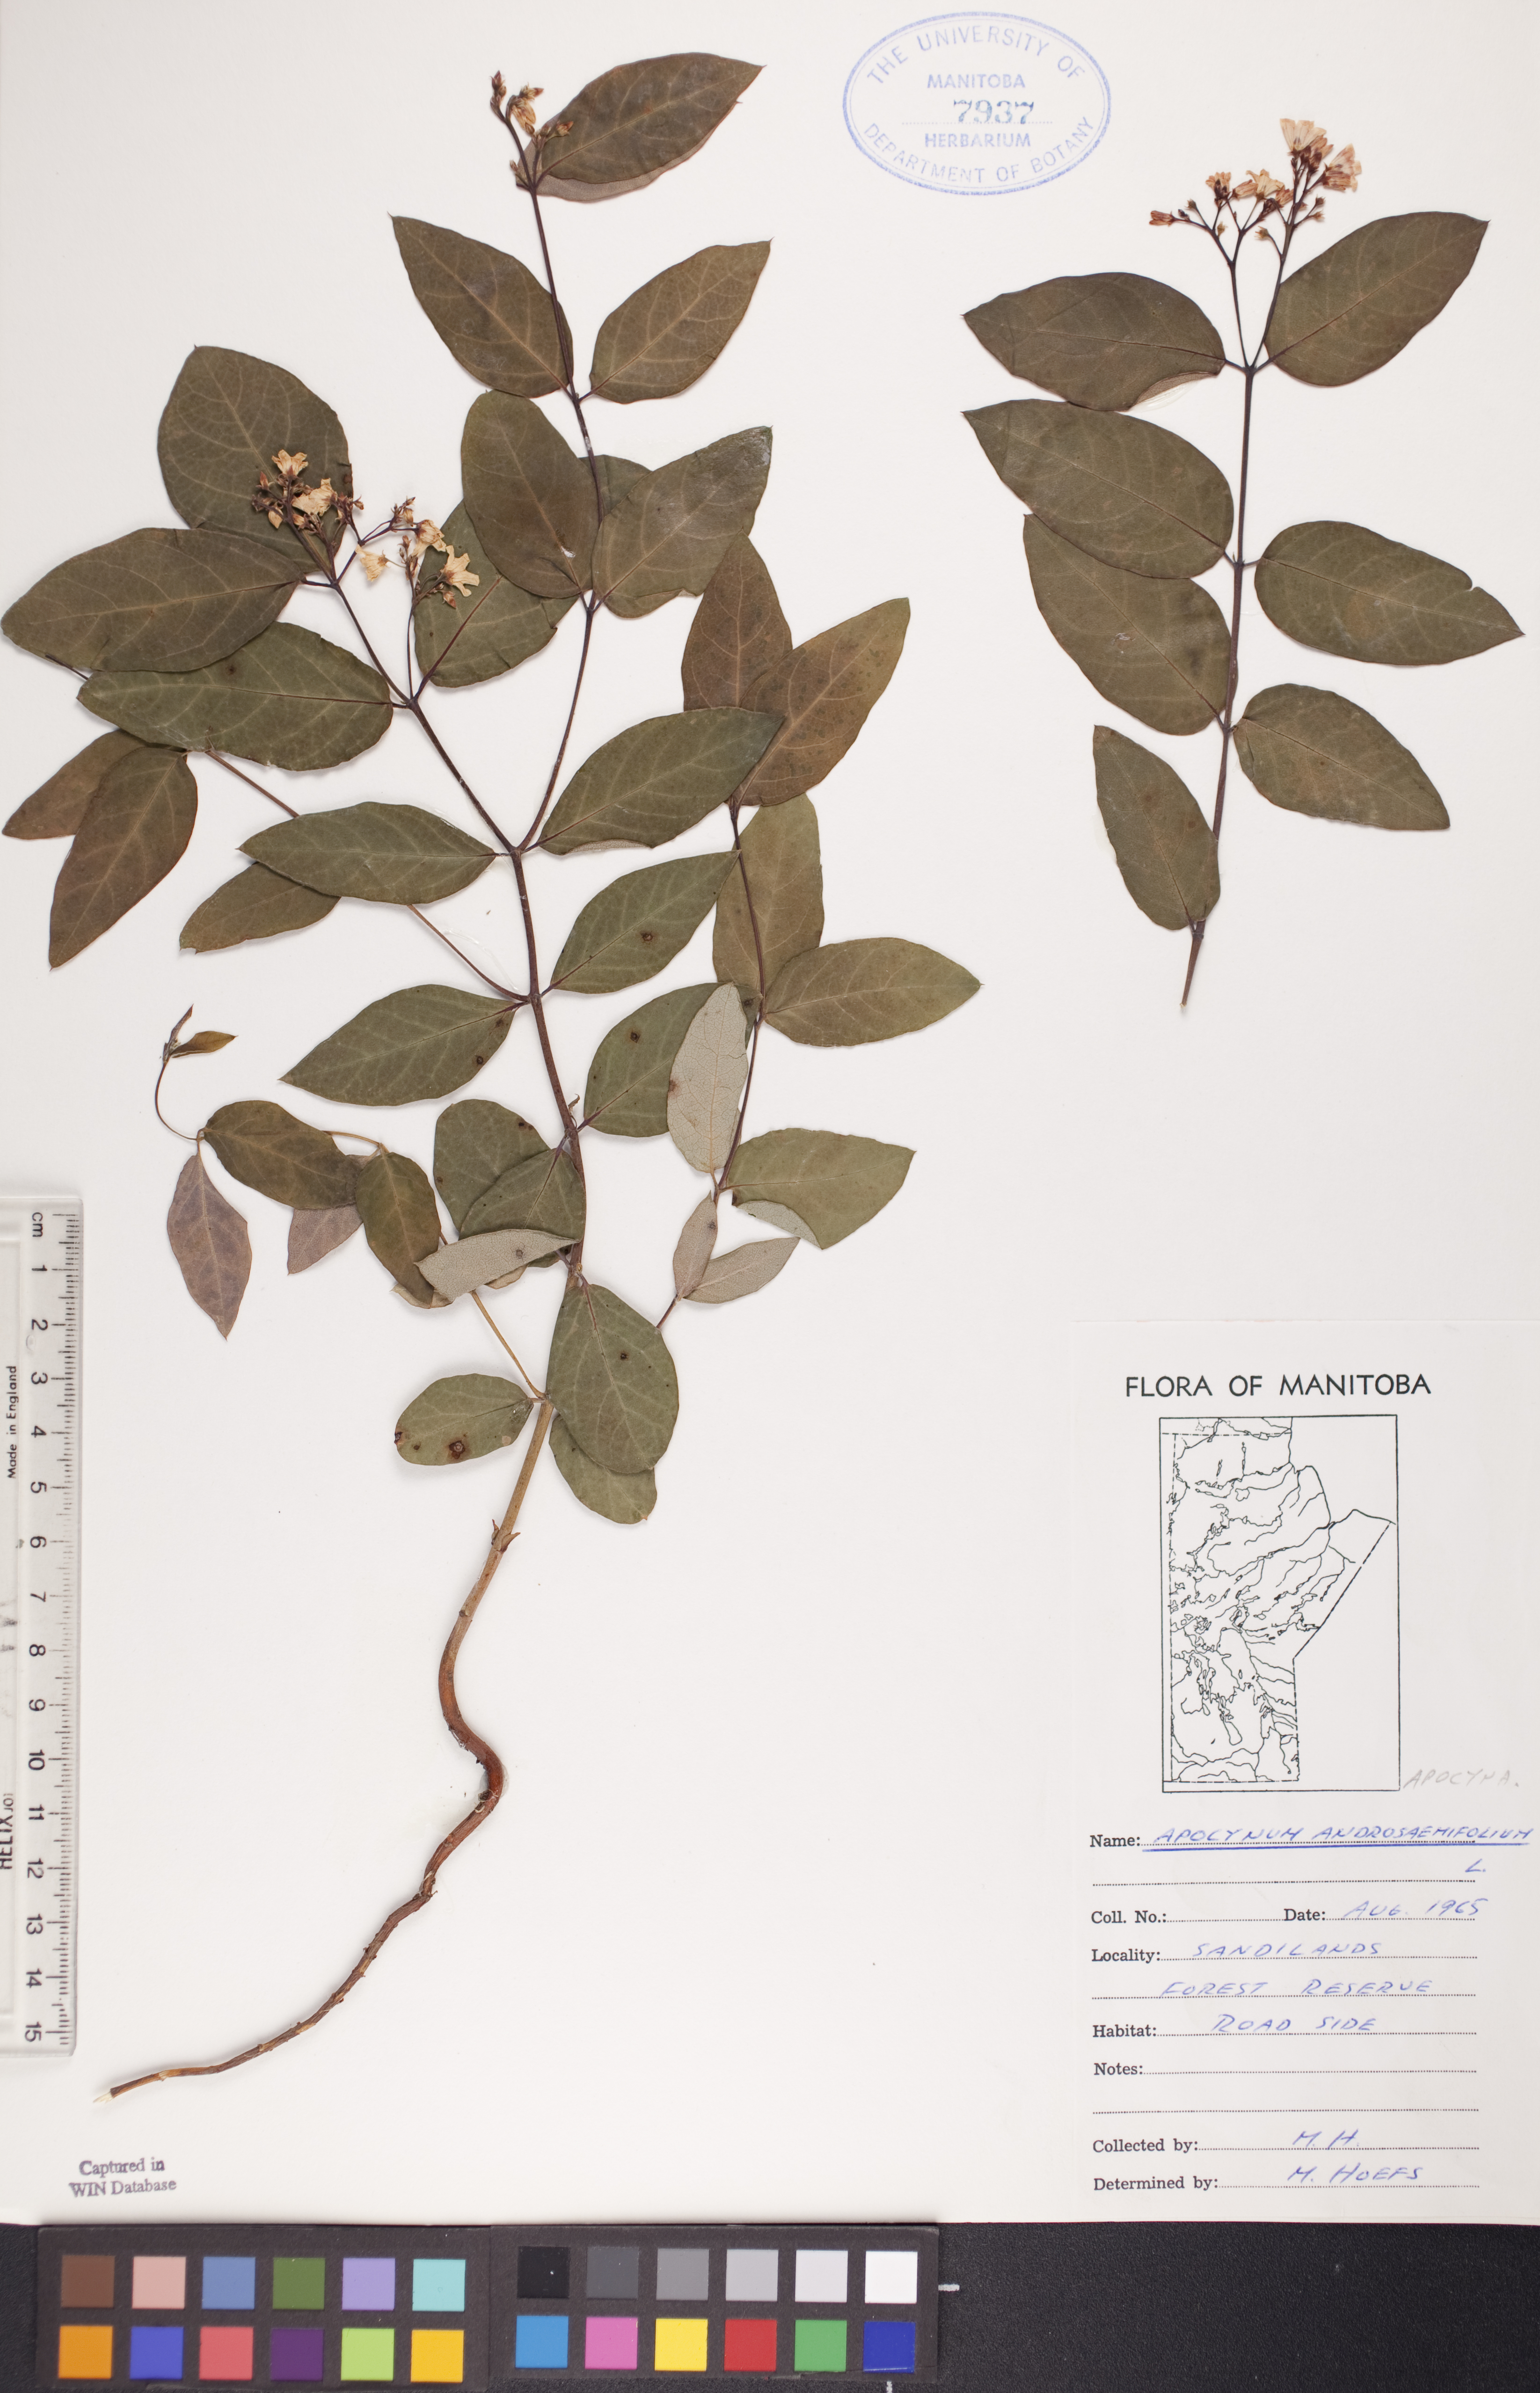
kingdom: Plantae
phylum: Tracheophyta
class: Magnoliopsida
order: Gentianales
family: Apocynaceae
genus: Apocynum
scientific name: Apocynum androsaemifolium
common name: Spreading dogbane
